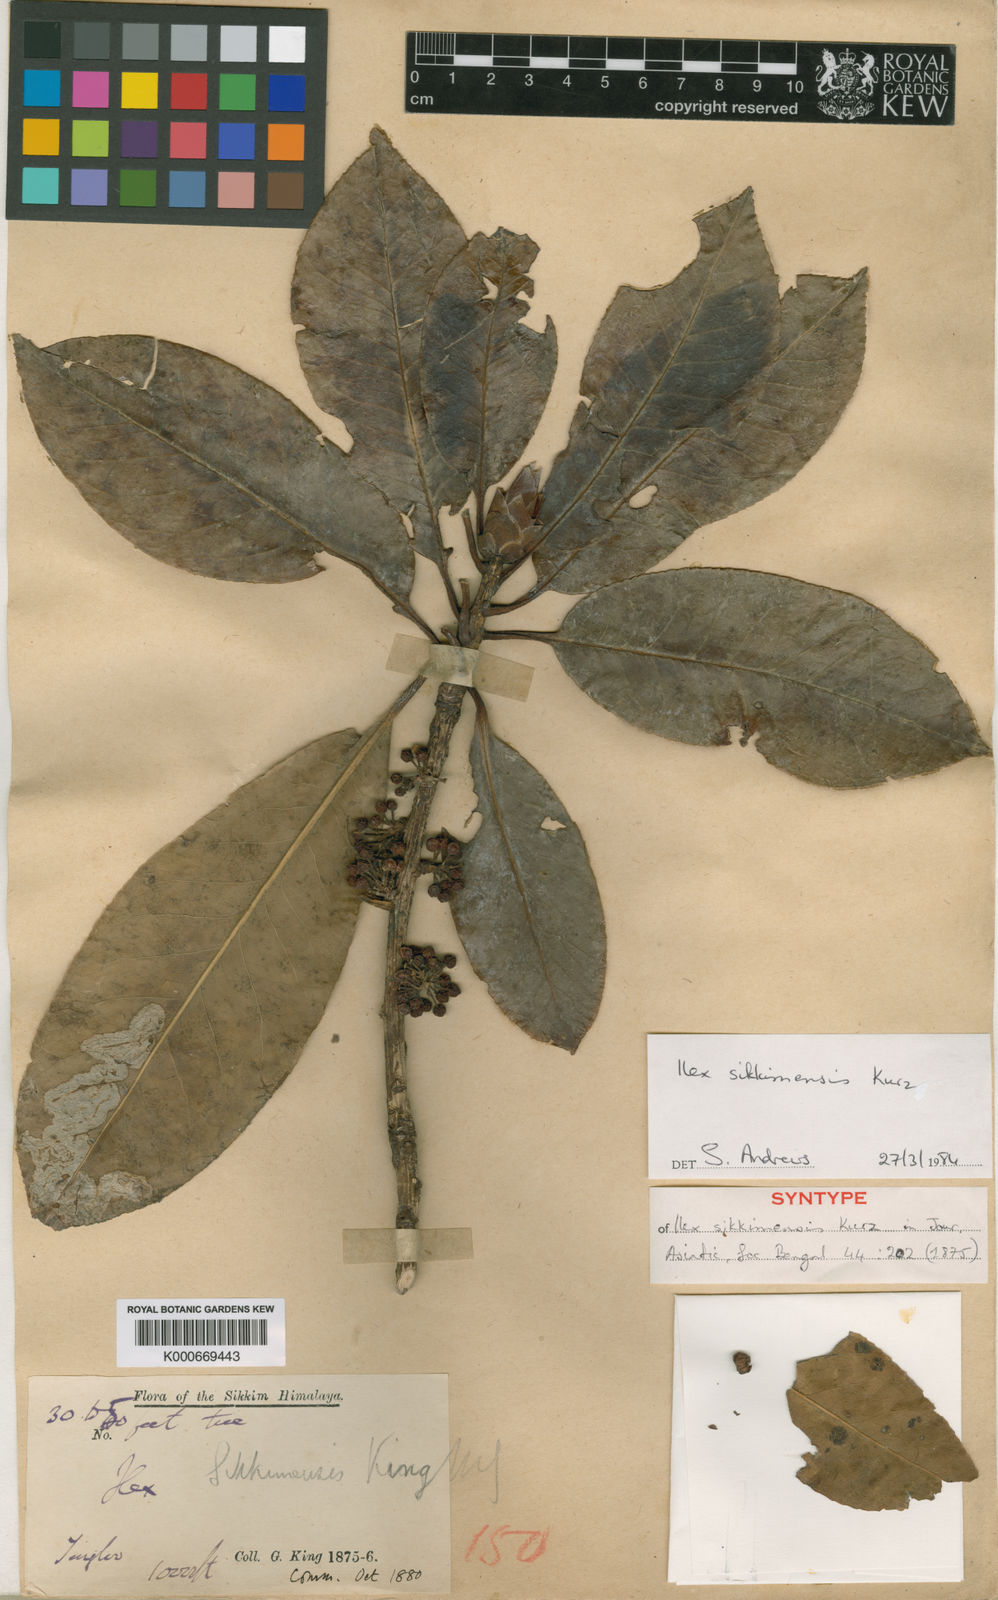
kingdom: Plantae
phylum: Tracheophyta
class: Magnoliopsida
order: Aquifoliales
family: Aquifoliaceae
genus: Ilex
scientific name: Ilex sikkimensis
